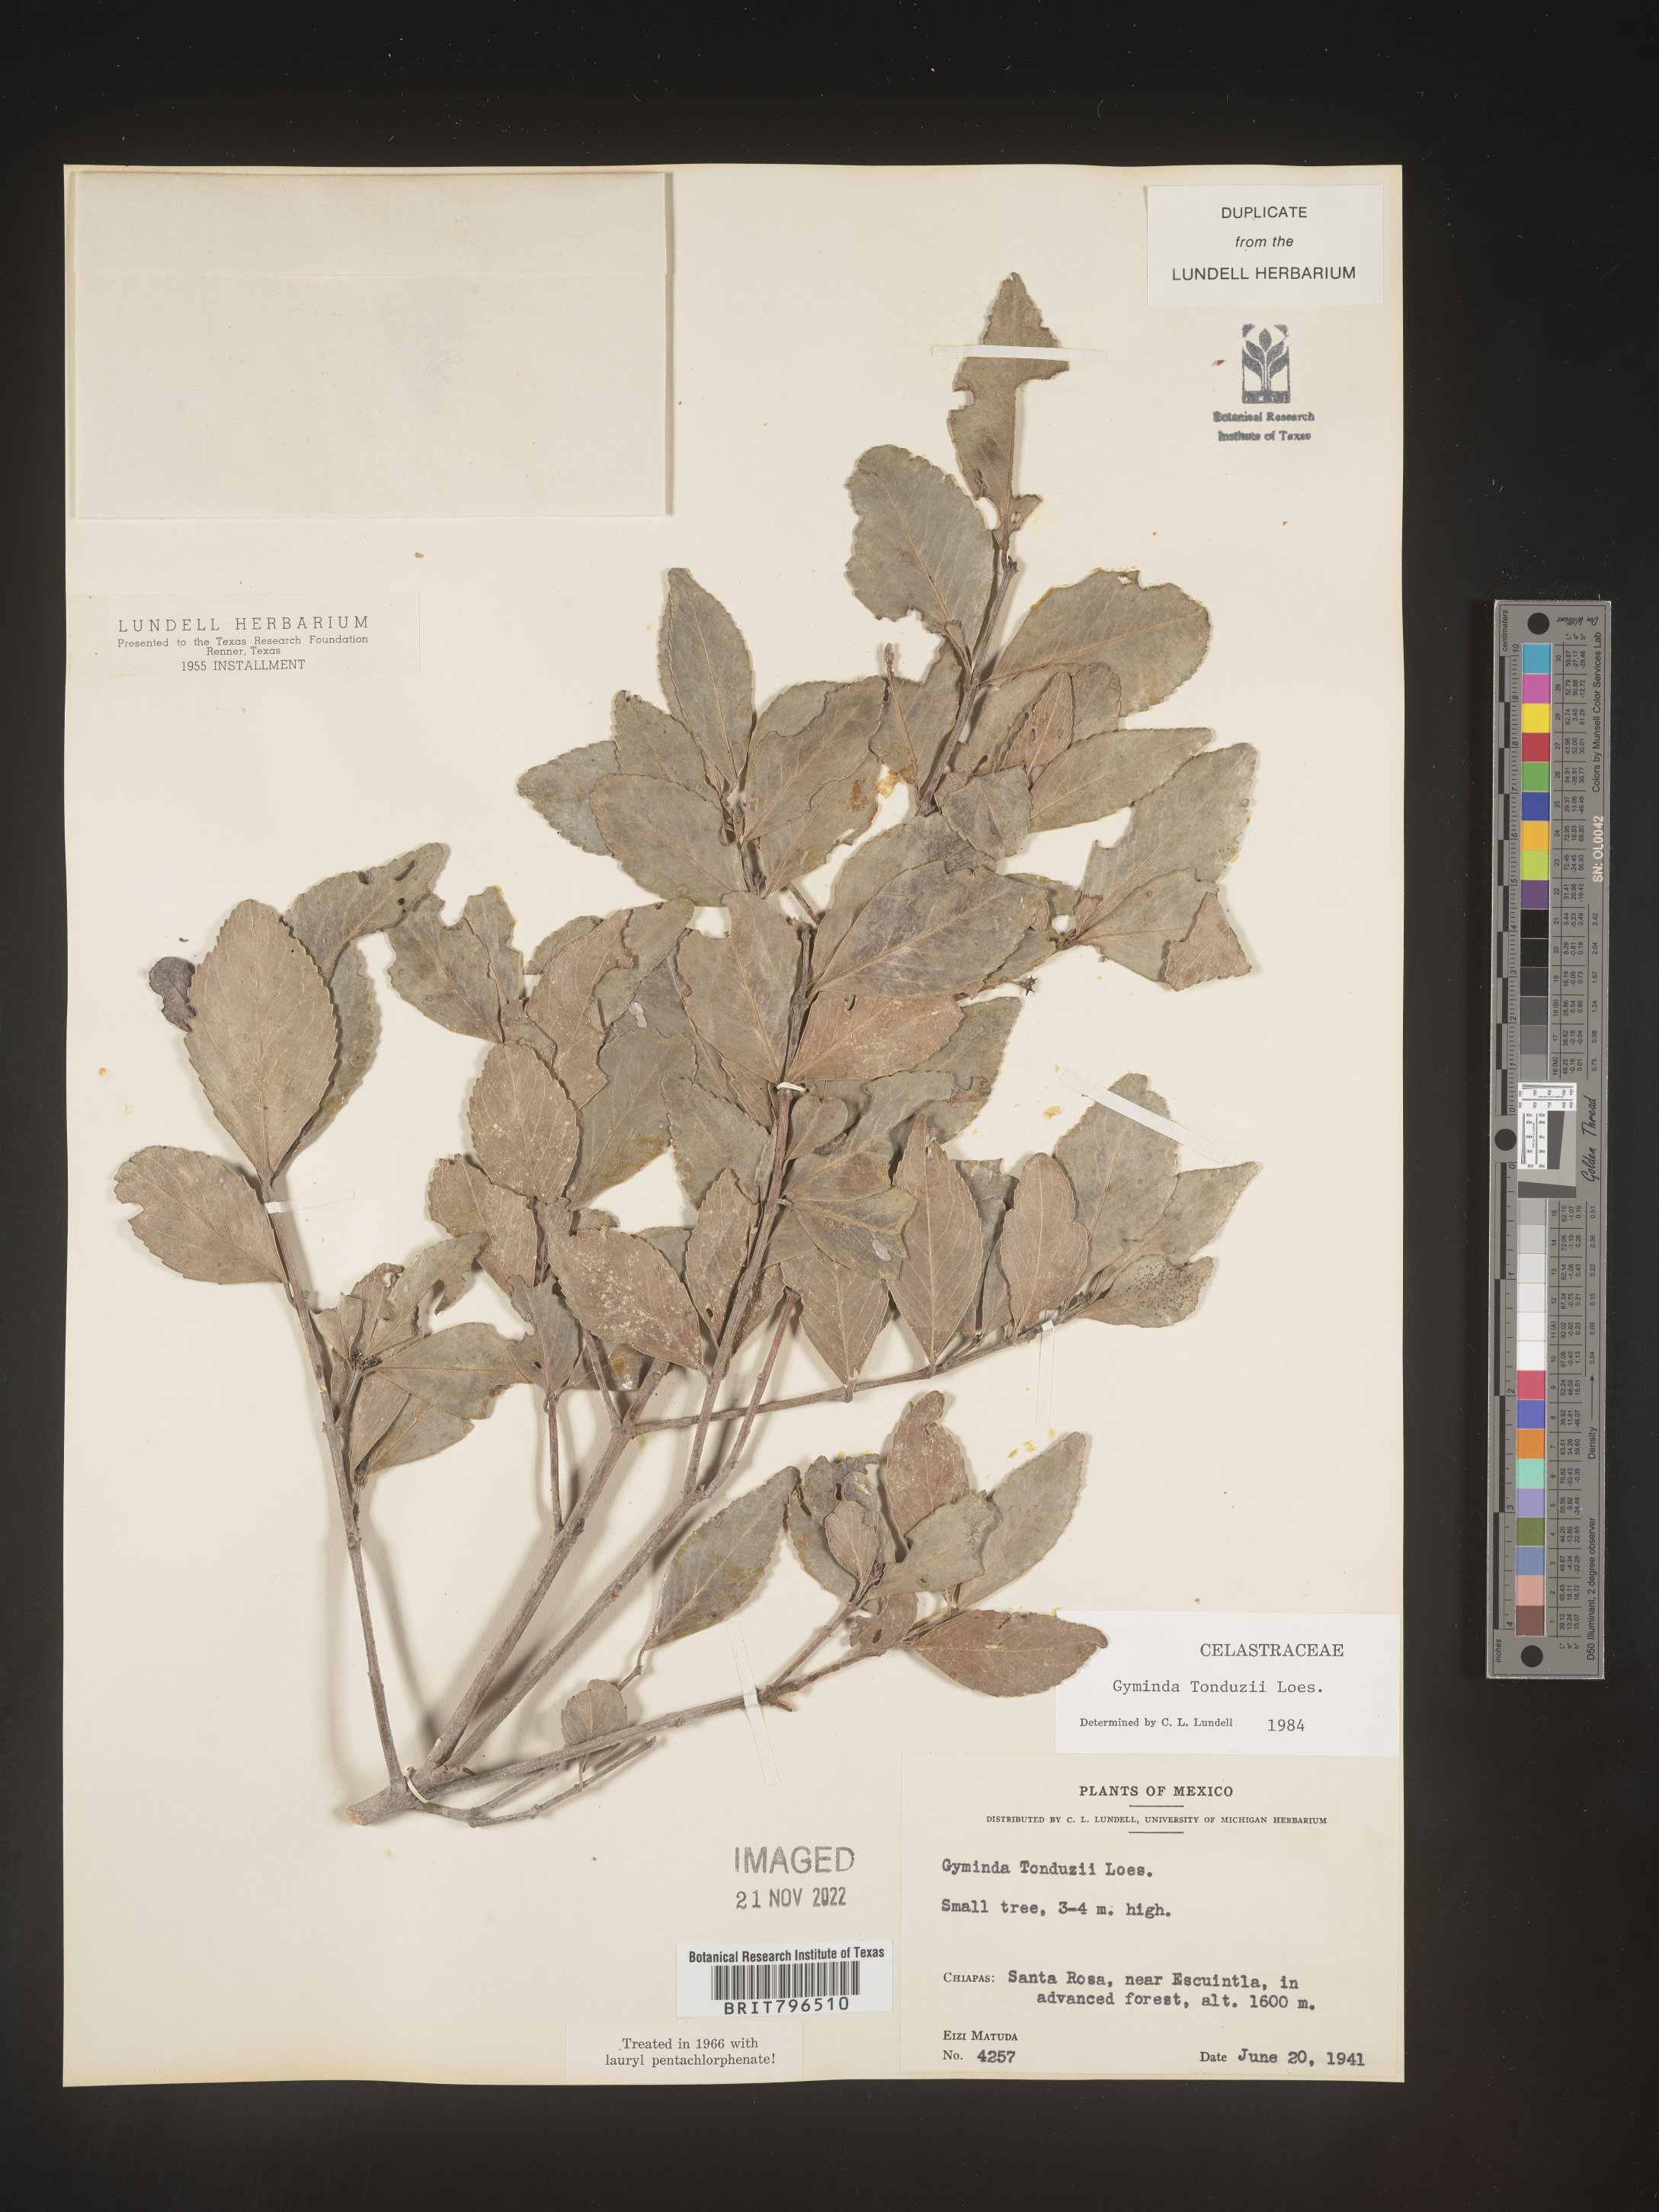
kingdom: Plantae
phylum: Tracheophyta
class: Magnoliopsida
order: Celastrales
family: Celastraceae
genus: Gyminda
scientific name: Gyminda
